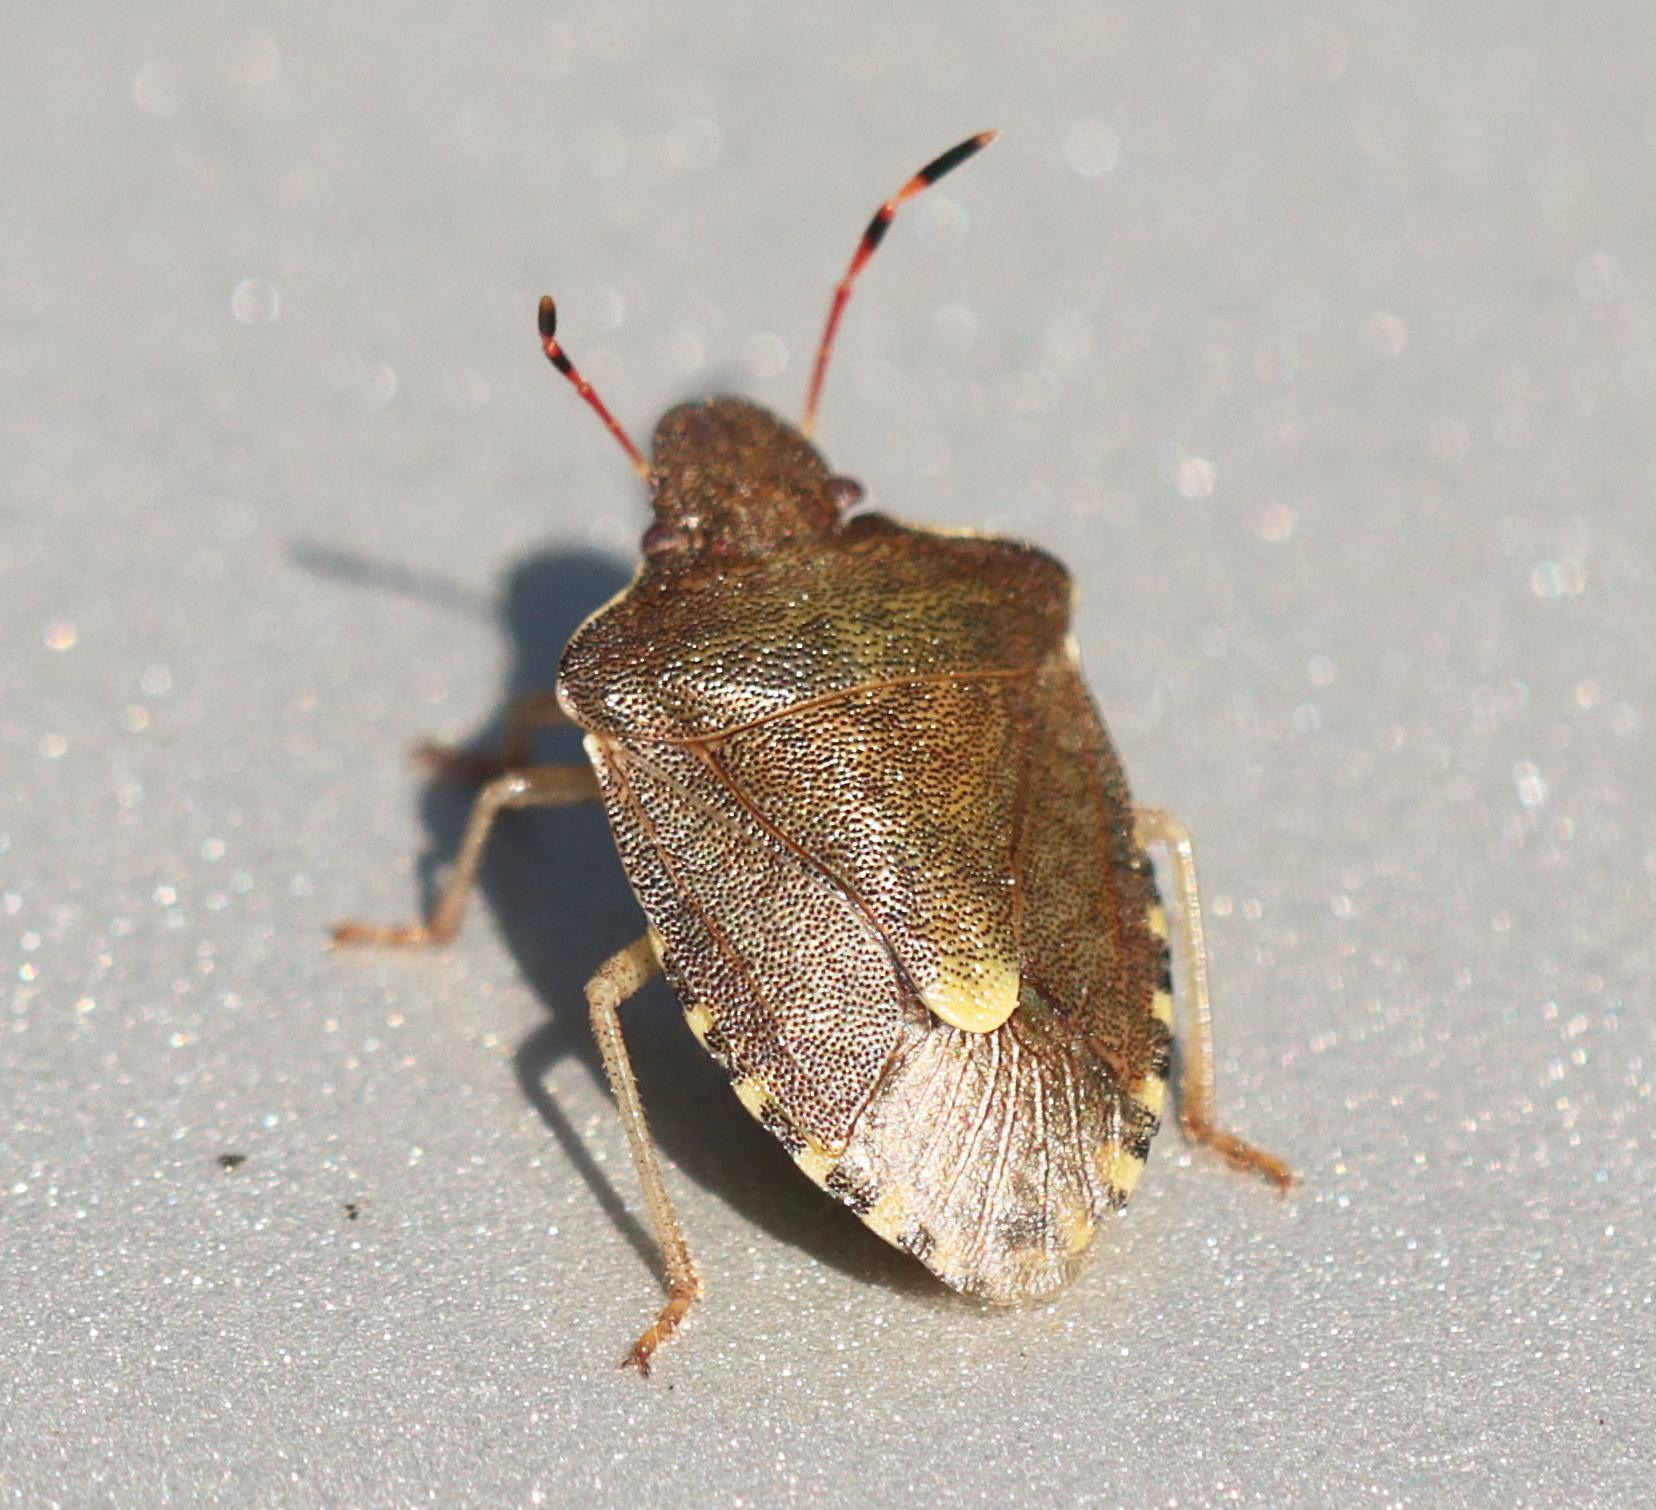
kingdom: Animalia
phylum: Arthropoda
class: Insecta
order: Hemiptera
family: Pentatomidae
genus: Holcostethus
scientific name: Holcostethus strictus
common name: Lille bærtæge
